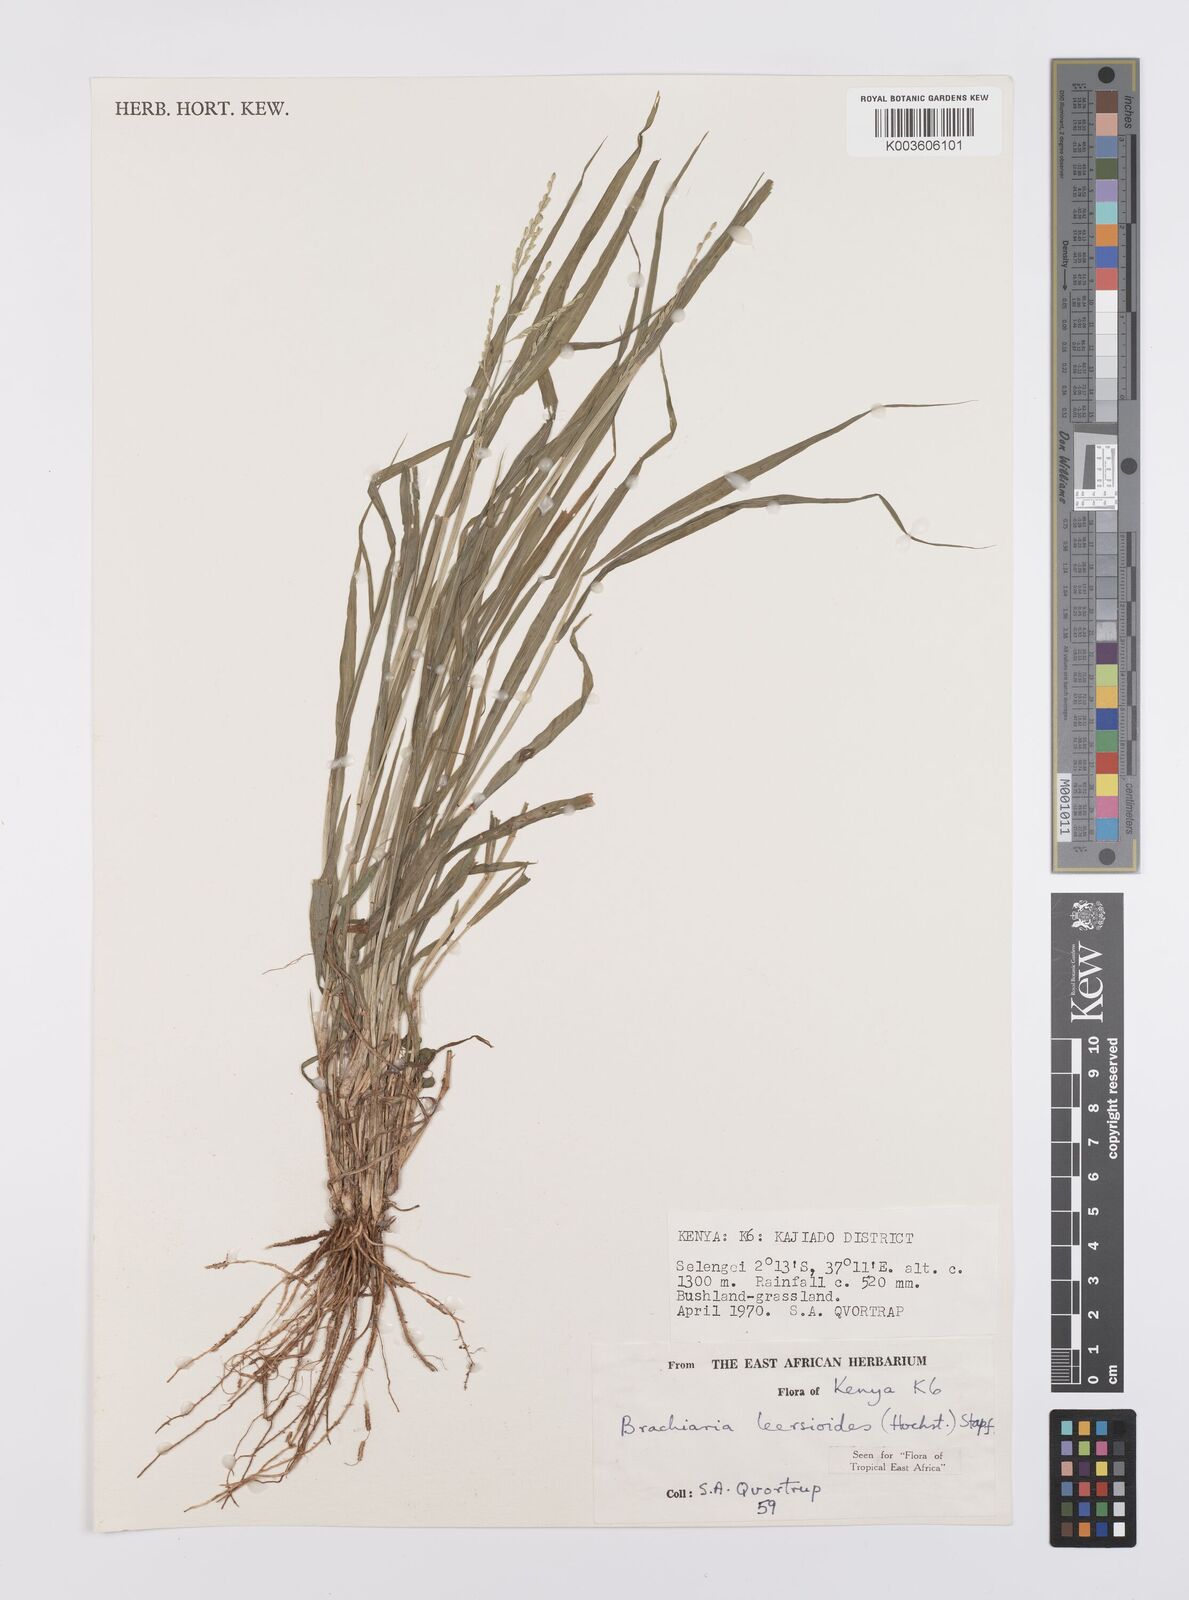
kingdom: Plantae
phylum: Tracheophyta
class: Liliopsida
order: Poales
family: Poaceae
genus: Urochloa
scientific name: Urochloa leersioides
